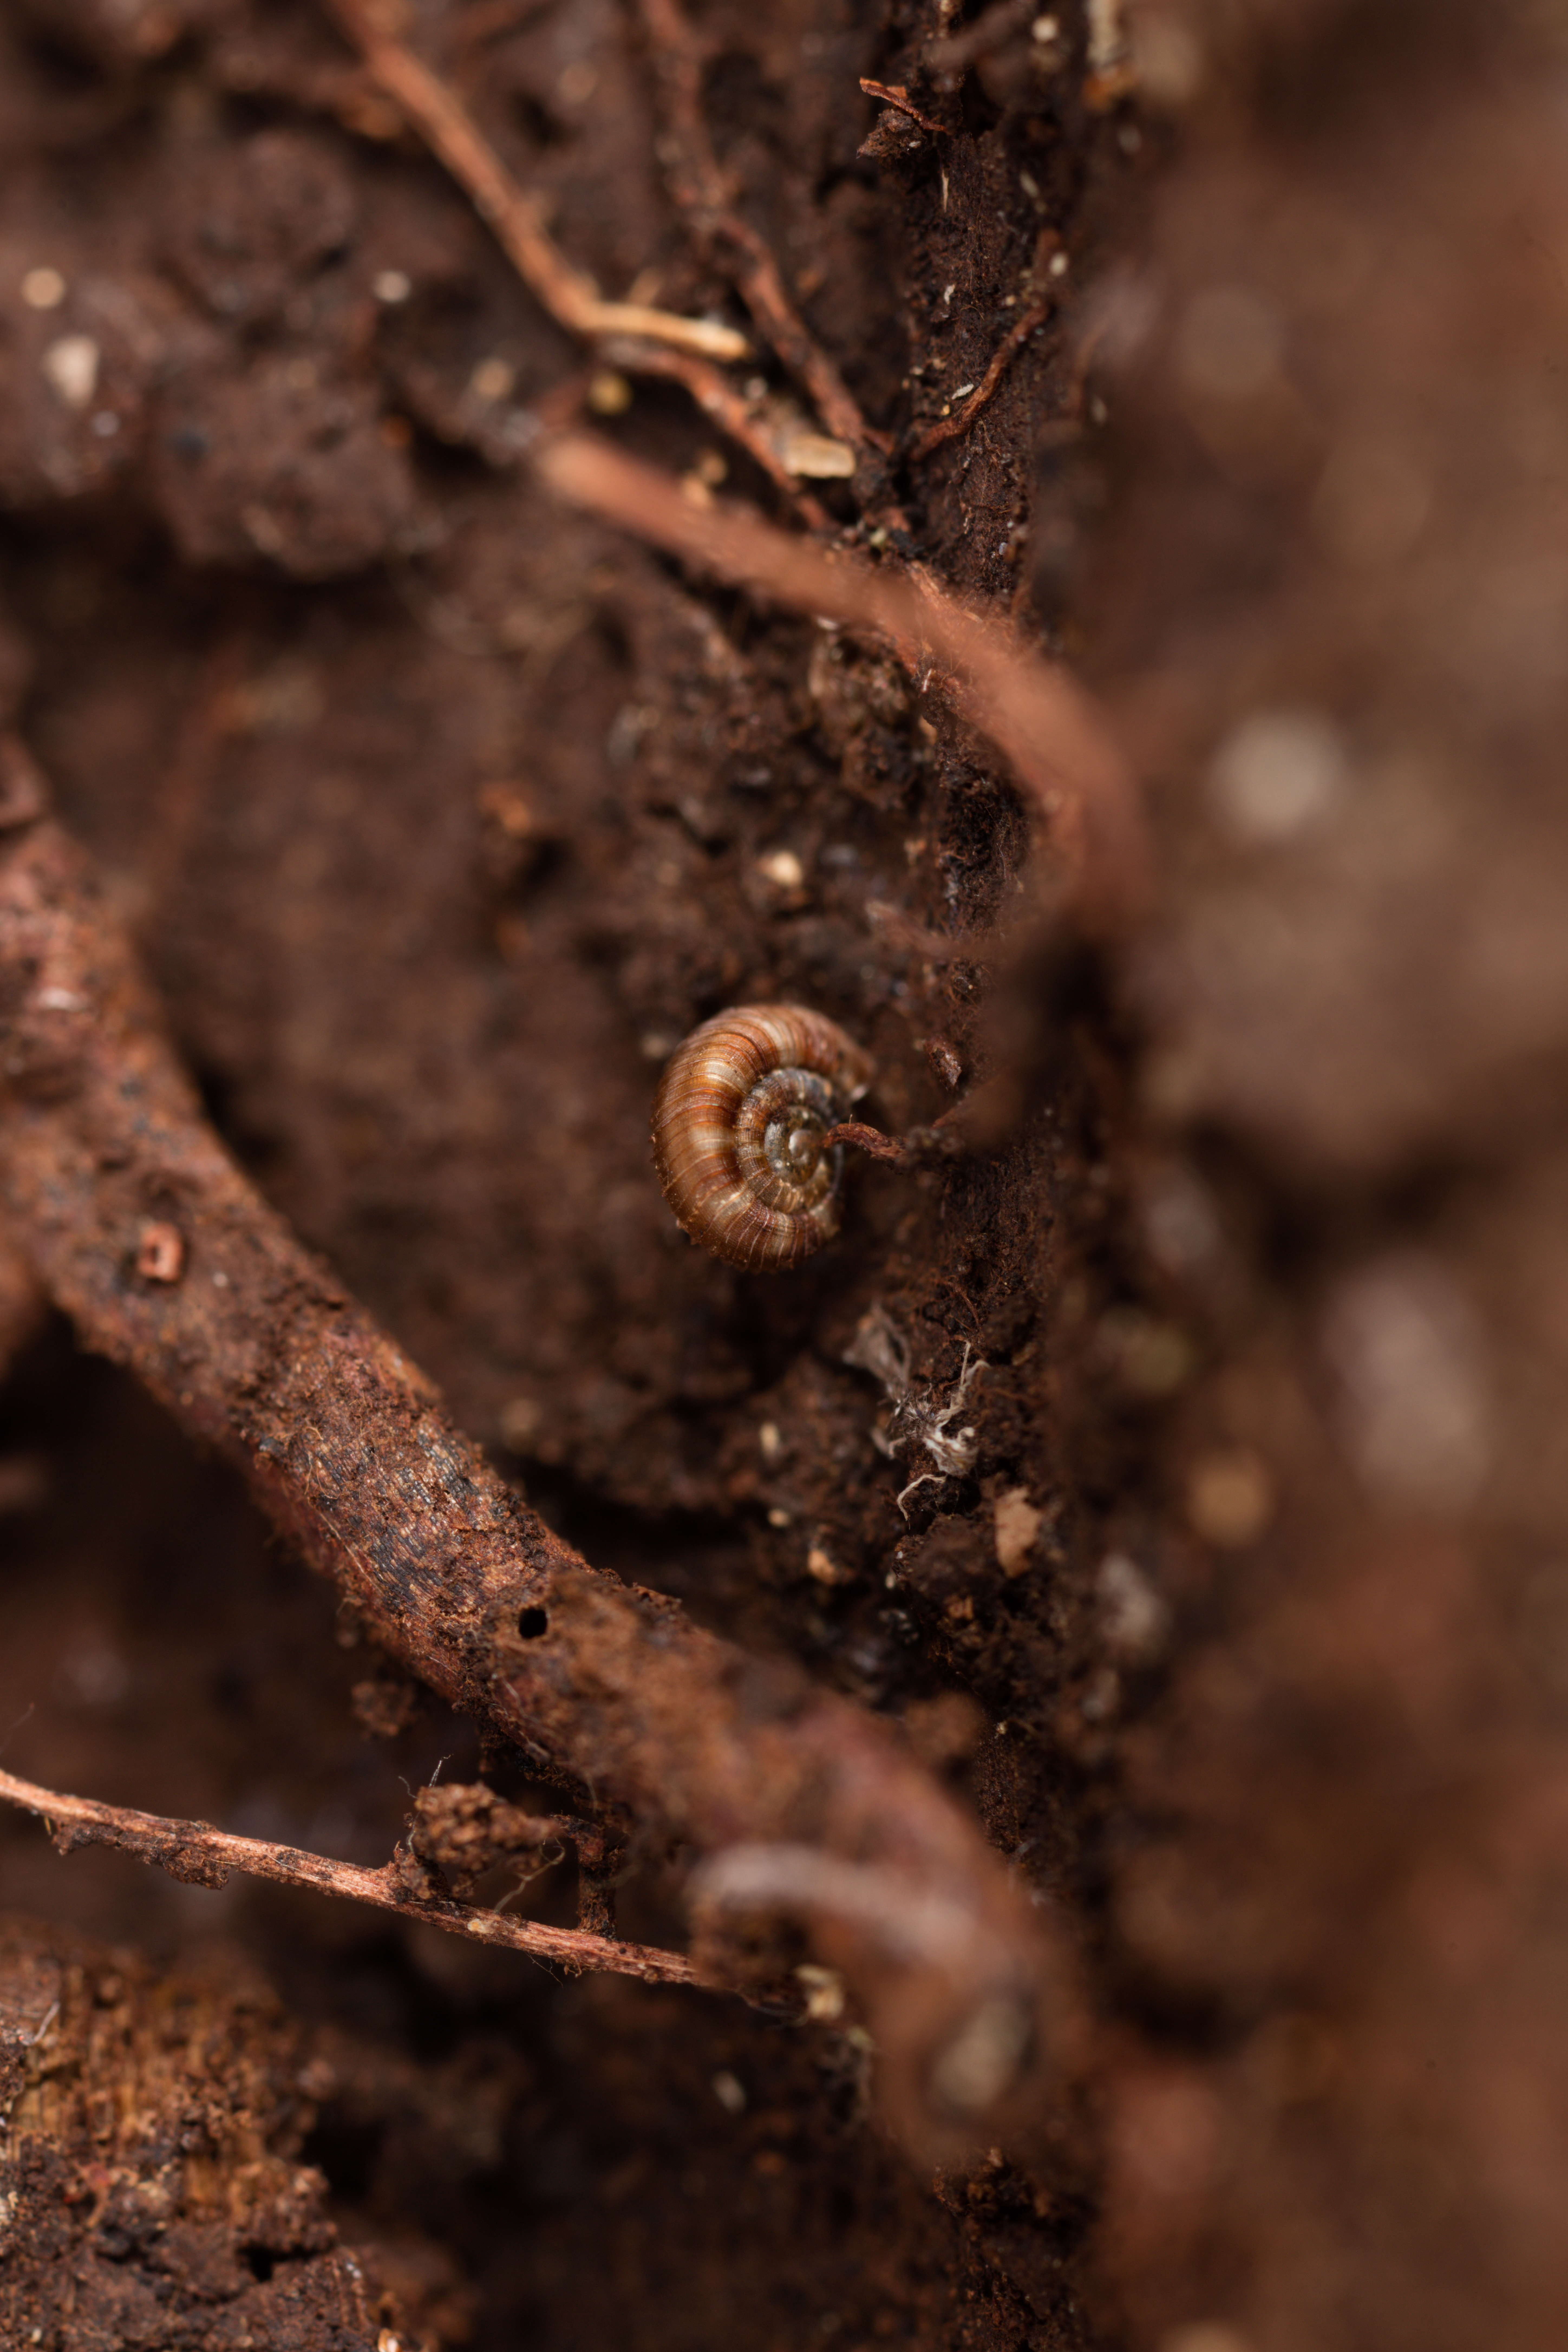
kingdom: Fungi
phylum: Ascomycota
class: Lecanoromycetes
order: Peltigerales
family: Lobariaceae
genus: Pseudocyphellaria
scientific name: Pseudocyphellaria dissimilis
